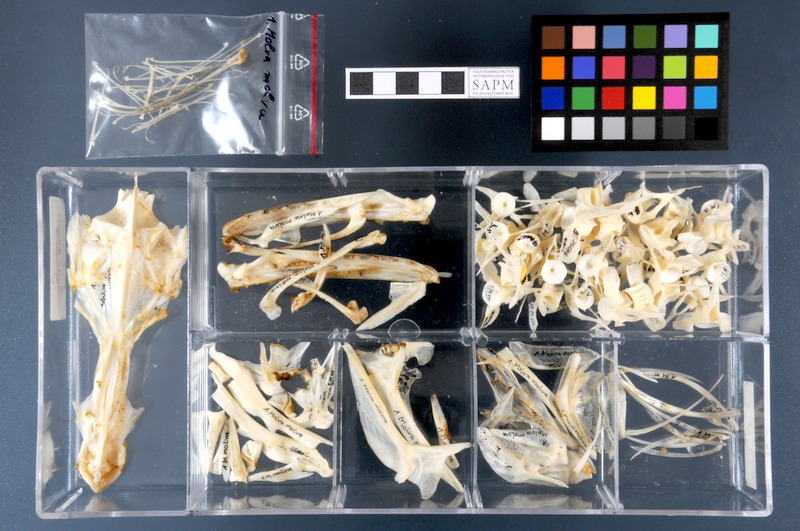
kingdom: Animalia
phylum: Chordata
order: Gadiformes
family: Lotidae
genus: Molva
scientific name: Molva molva
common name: Ling
